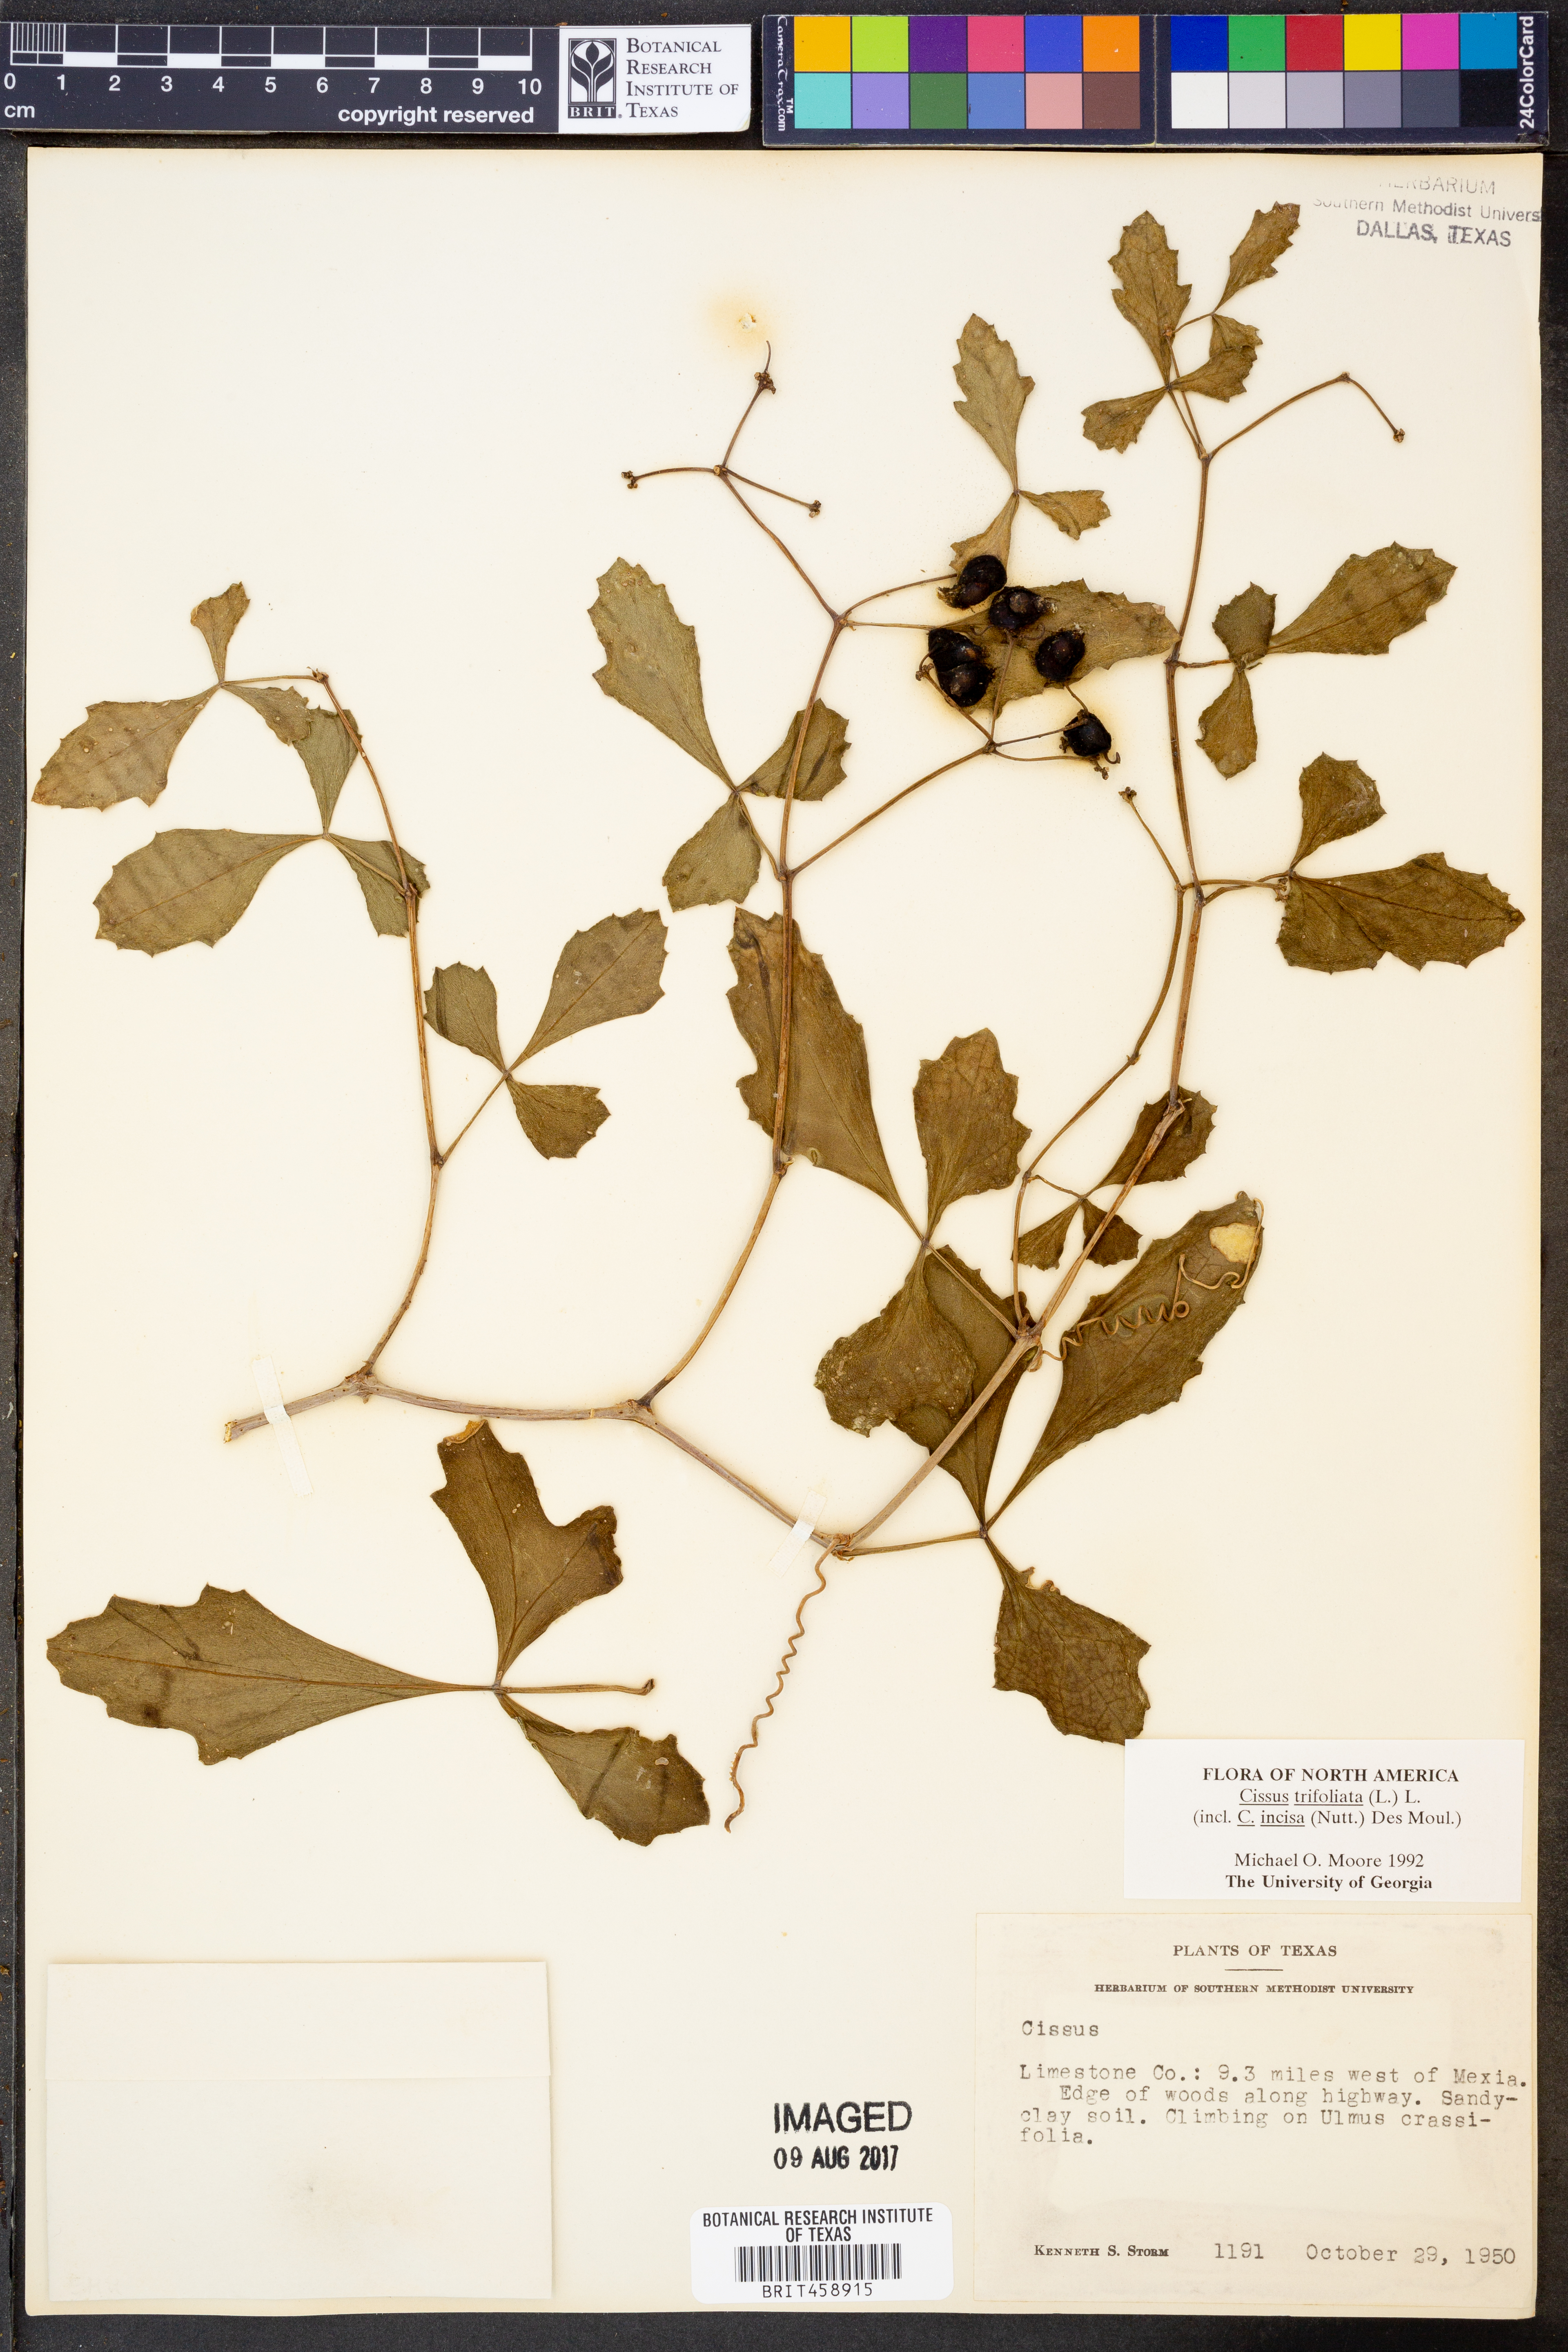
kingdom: Plantae
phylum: Tracheophyta
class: Magnoliopsida
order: Vitales
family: Vitaceae
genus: Cissus
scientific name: Cissus trifoliata
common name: Vine-sorrel
